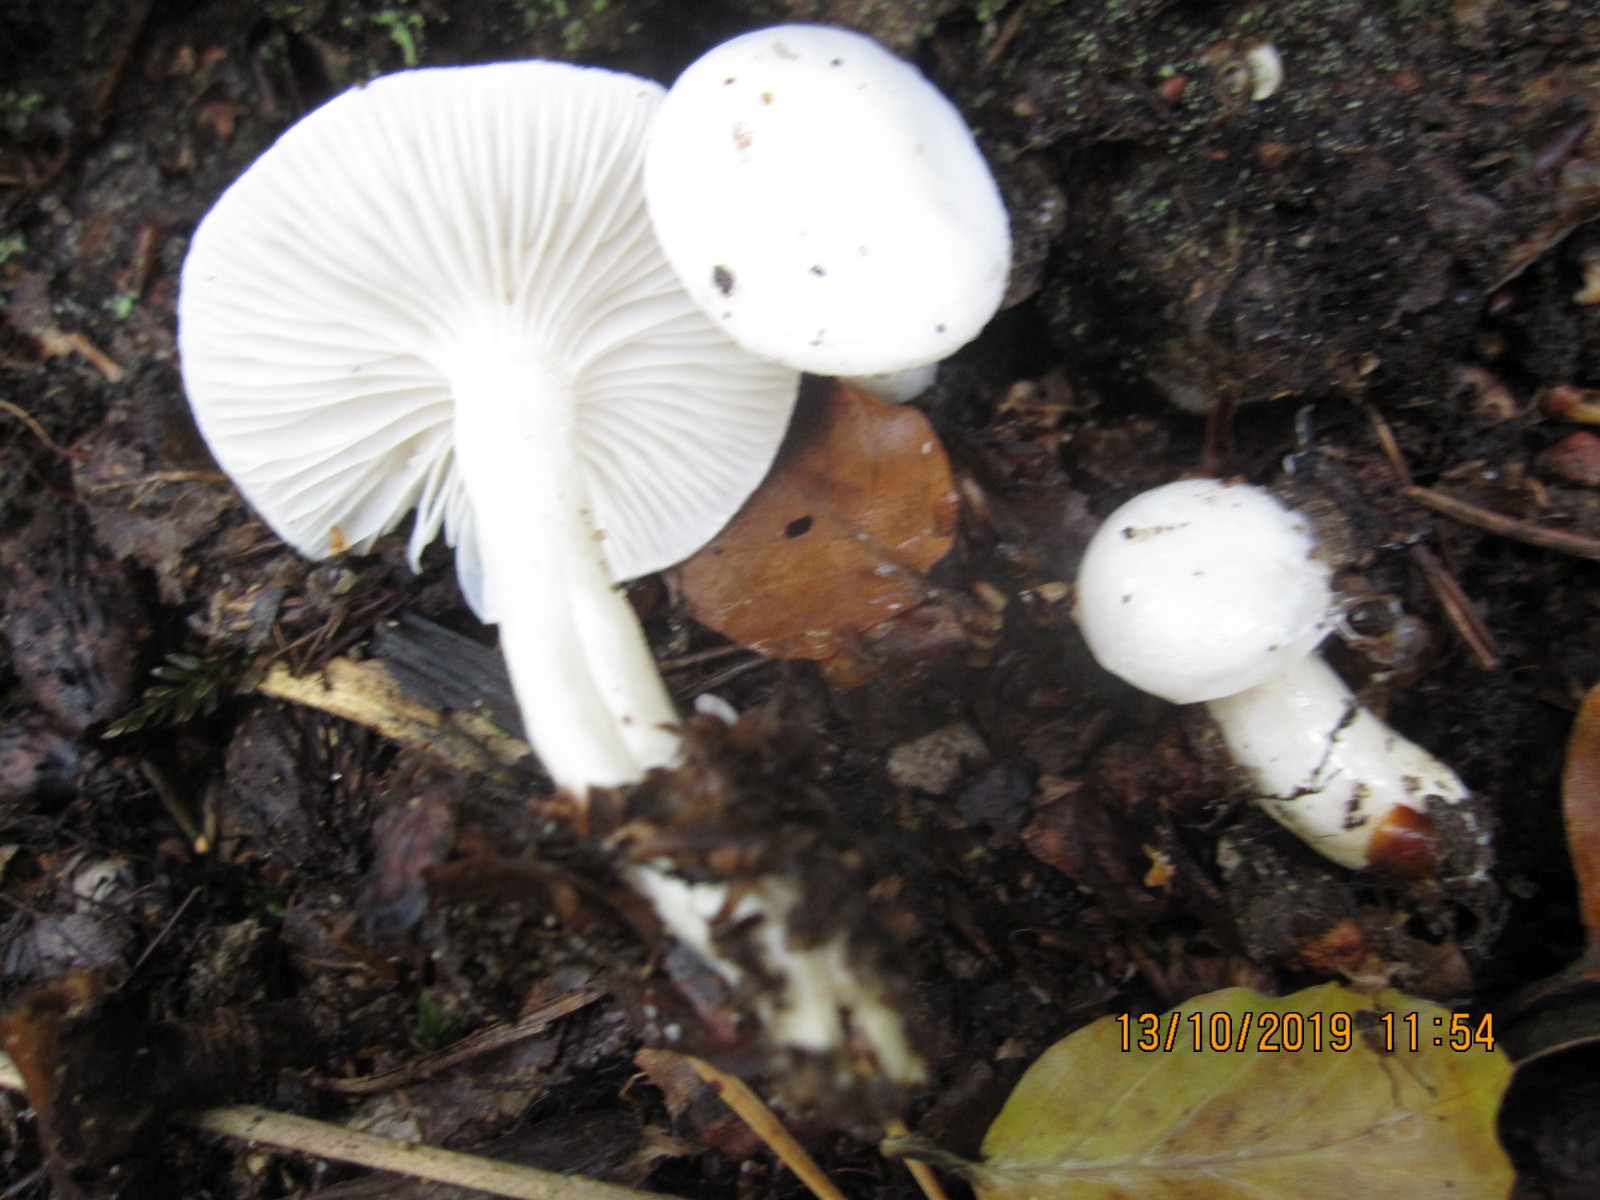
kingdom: Fungi
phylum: Basidiomycota
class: Agaricomycetes
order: Agaricales
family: Hygrophoraceae
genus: Hygrophorus
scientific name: Hygrophorus eburneus
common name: elfenbens-sneglehat
